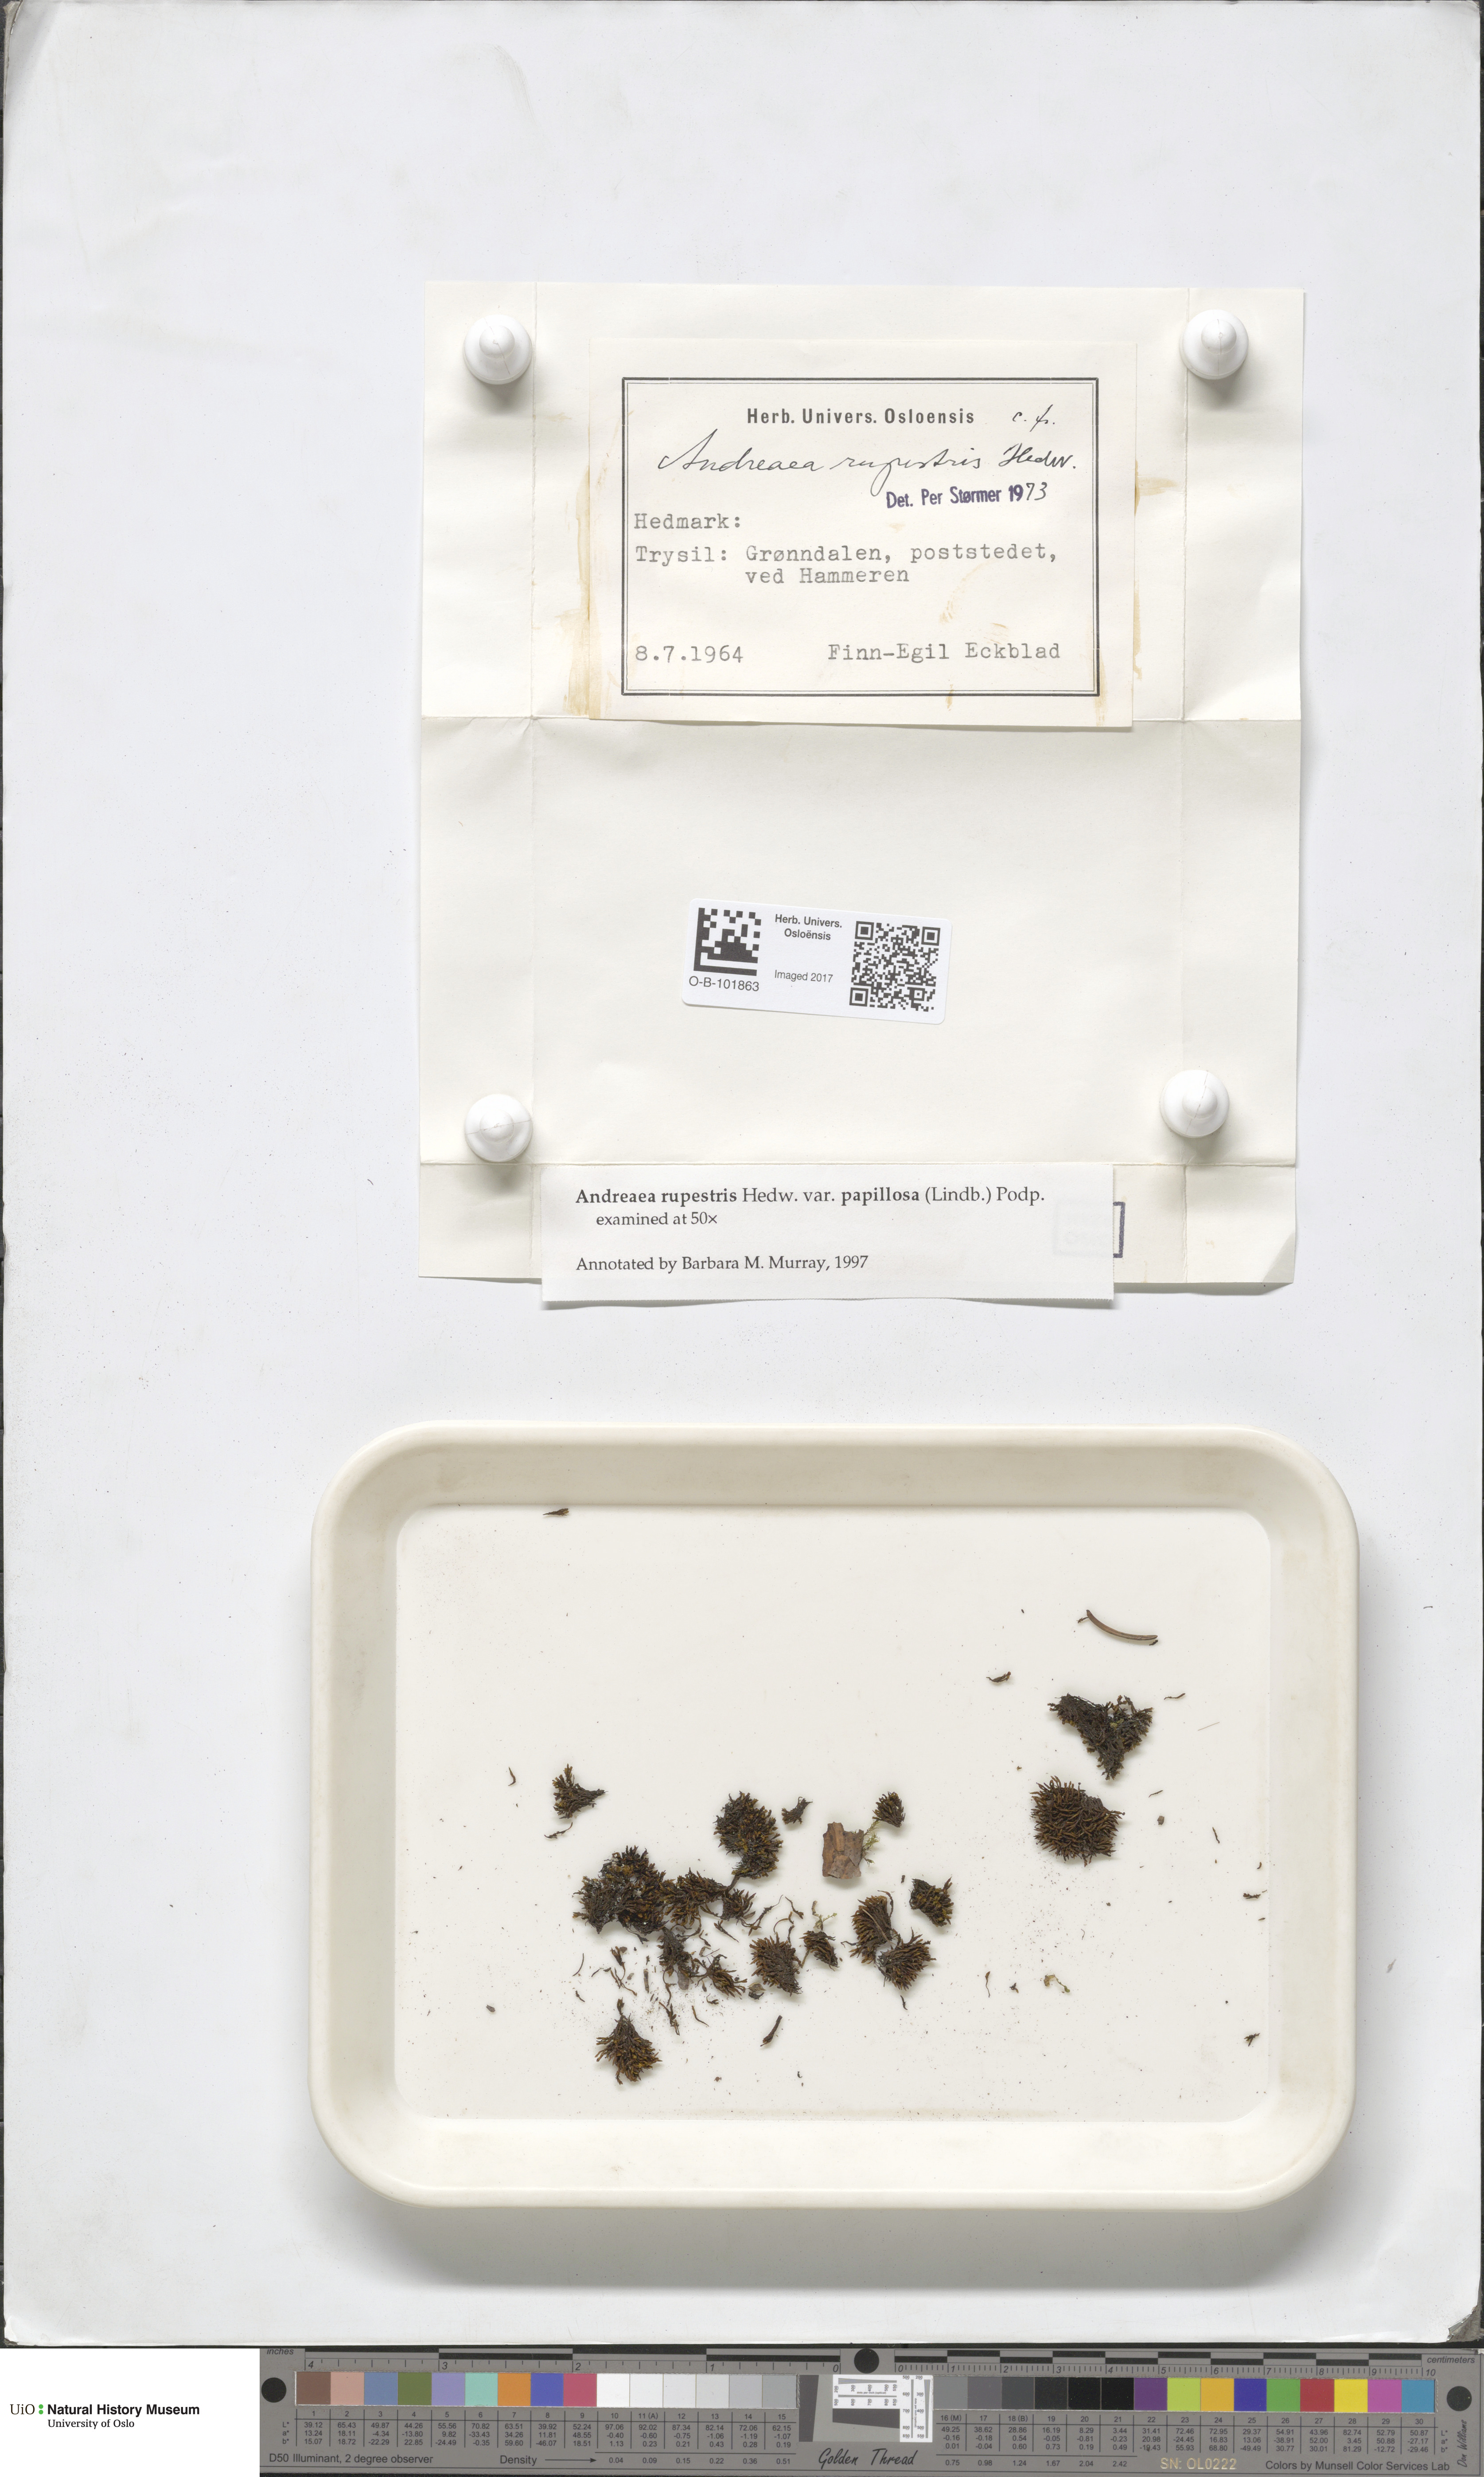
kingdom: Plantae
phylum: Bryophyta
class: Andreaeopsida
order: Andreaeales
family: Andreaeaceae
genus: Andreaea
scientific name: Andreaea rupestris
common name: Black rock moss
